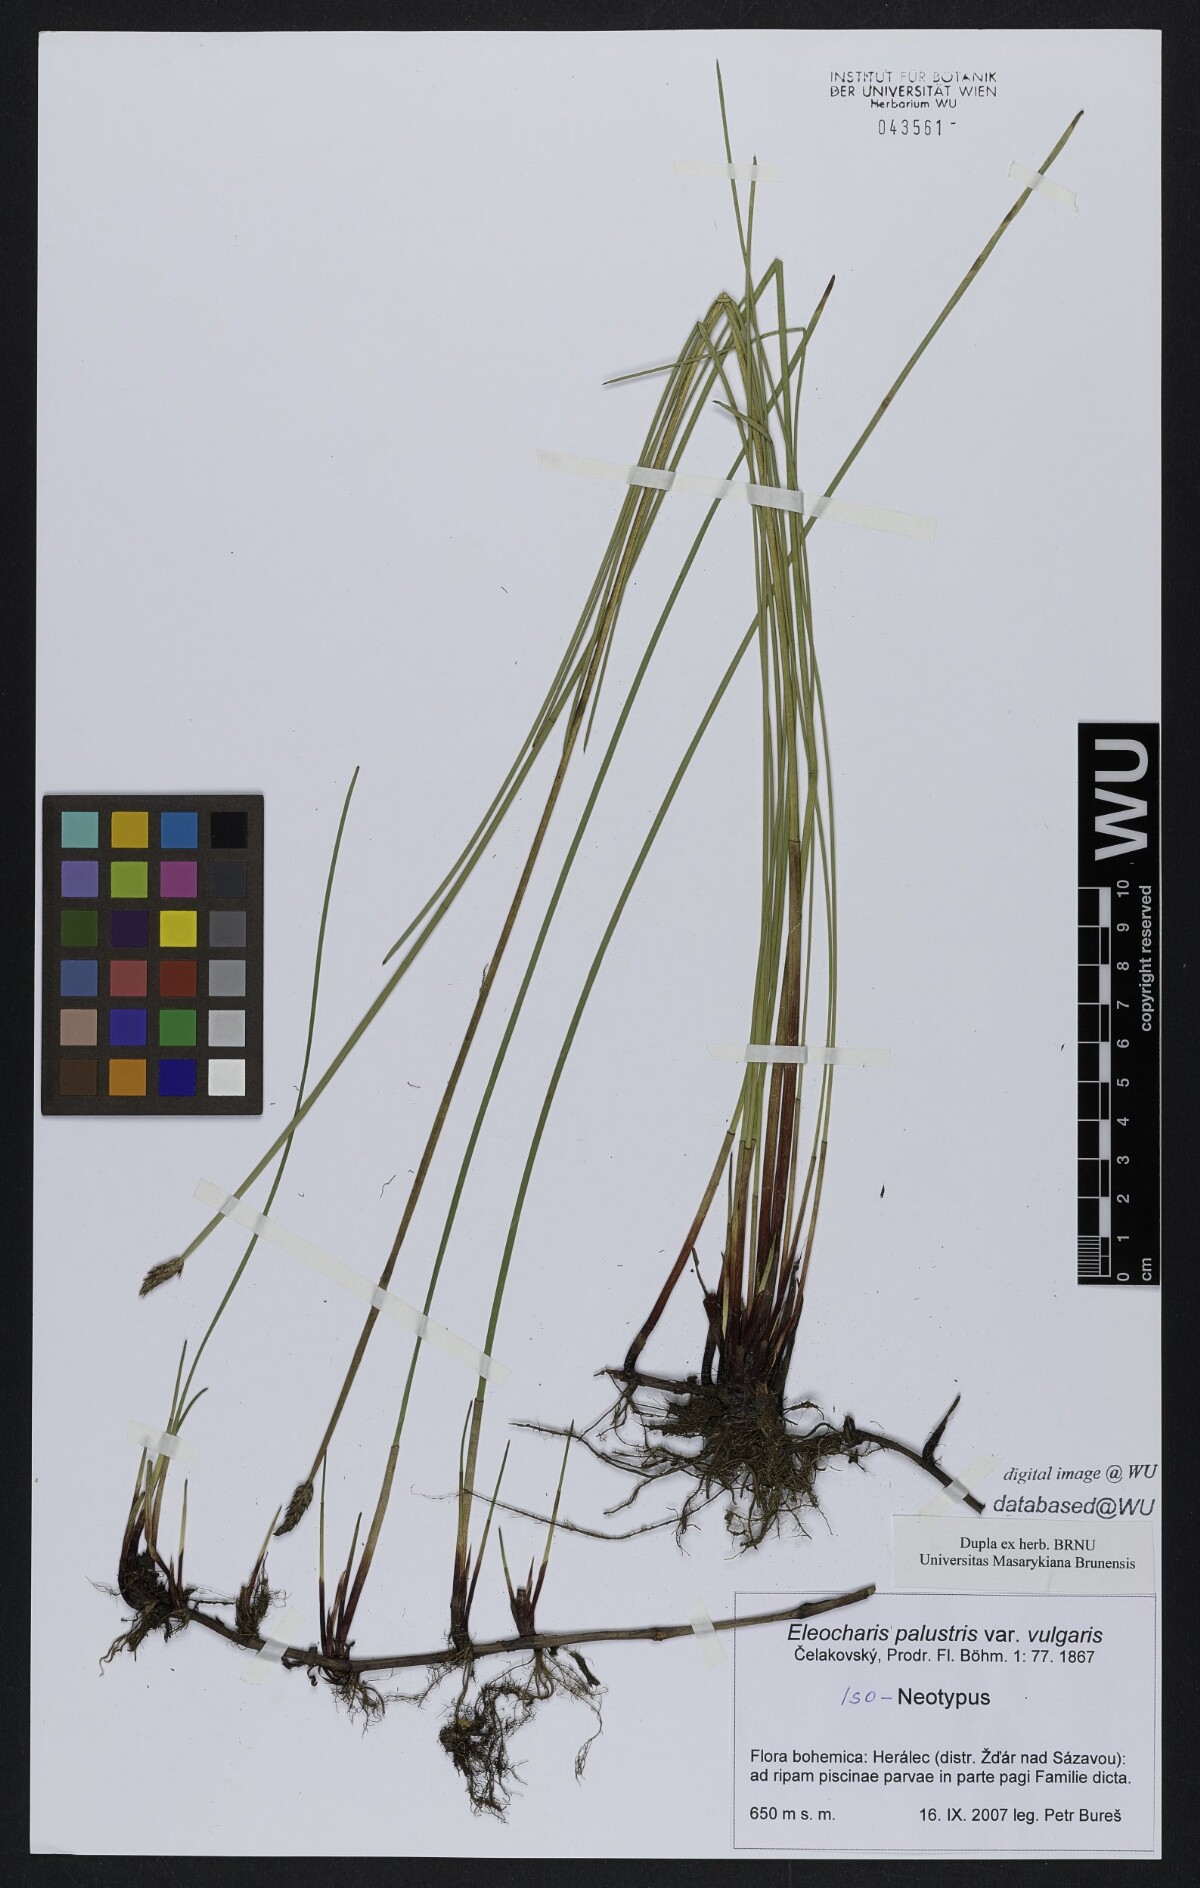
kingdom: Plantae
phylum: Tracheophyta
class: Liliopsida
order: Poales
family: Cyperaceae
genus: Eleocharis
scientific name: Eleocharis palustris
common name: Common spike-rush
